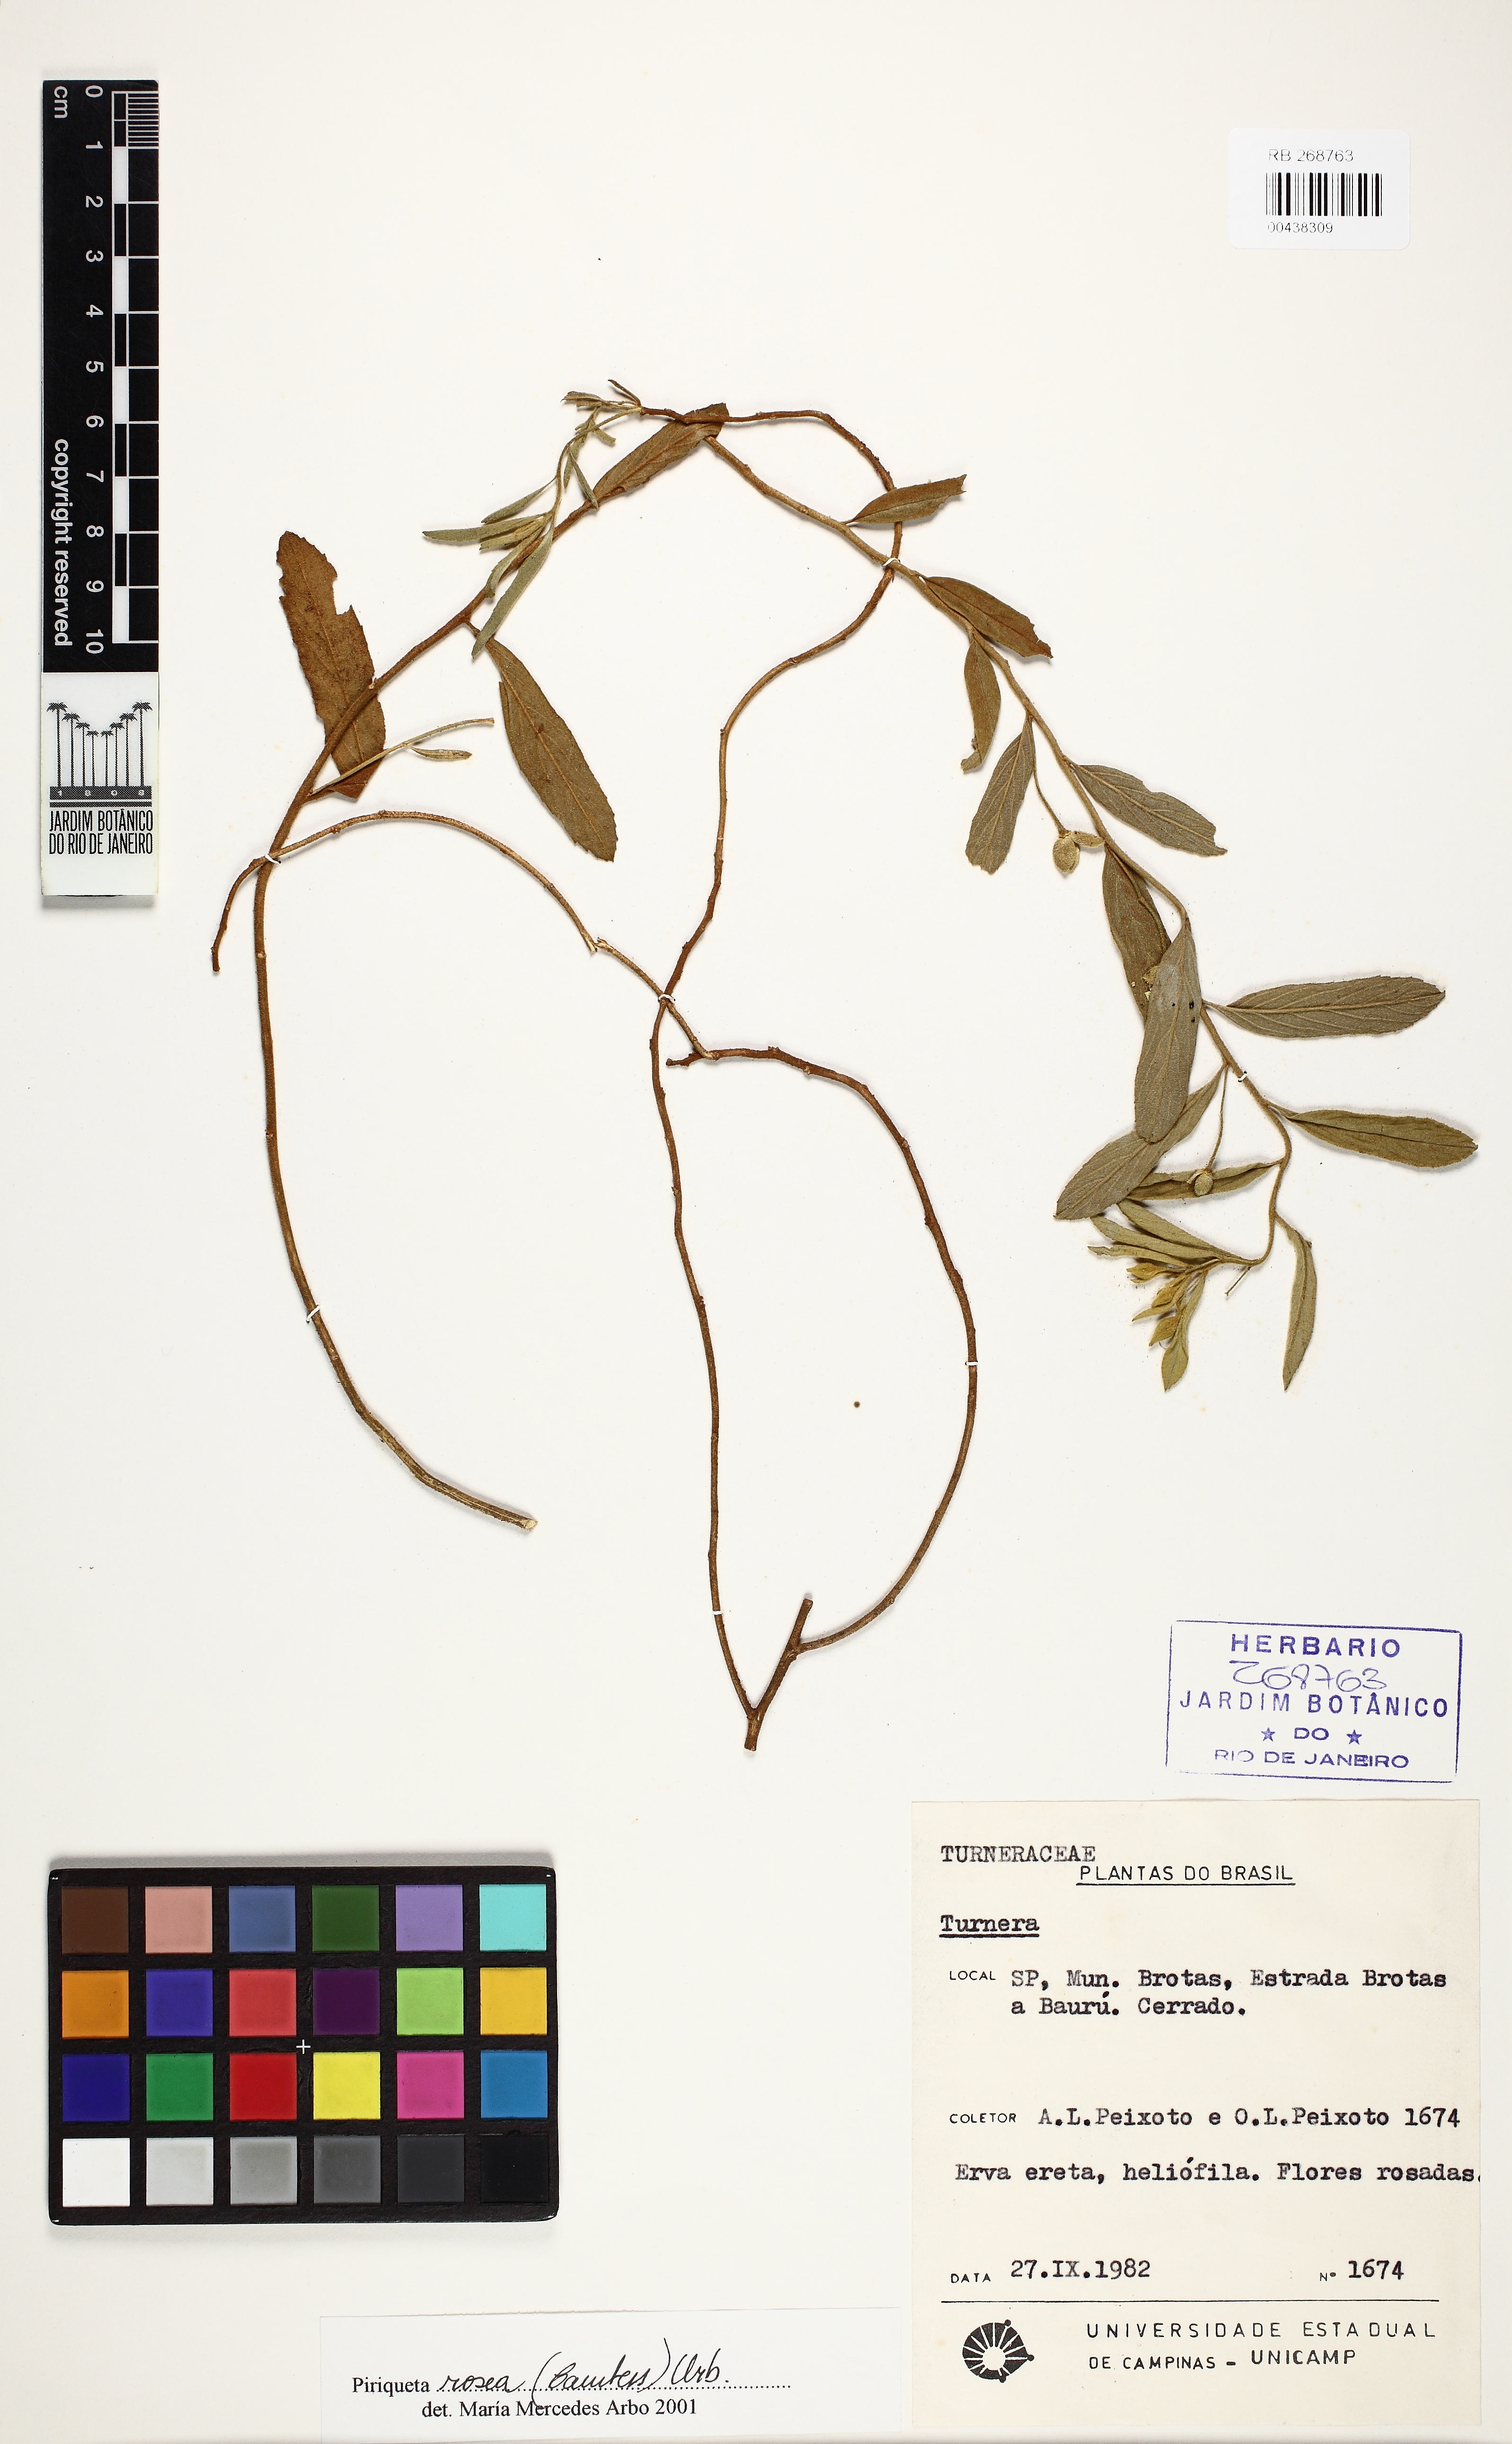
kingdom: Plantae
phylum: Tracheophyta
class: Magnoliopsida
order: Malpighiales
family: Turneraceae
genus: Piriqueta
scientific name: Piriqueta rosea
